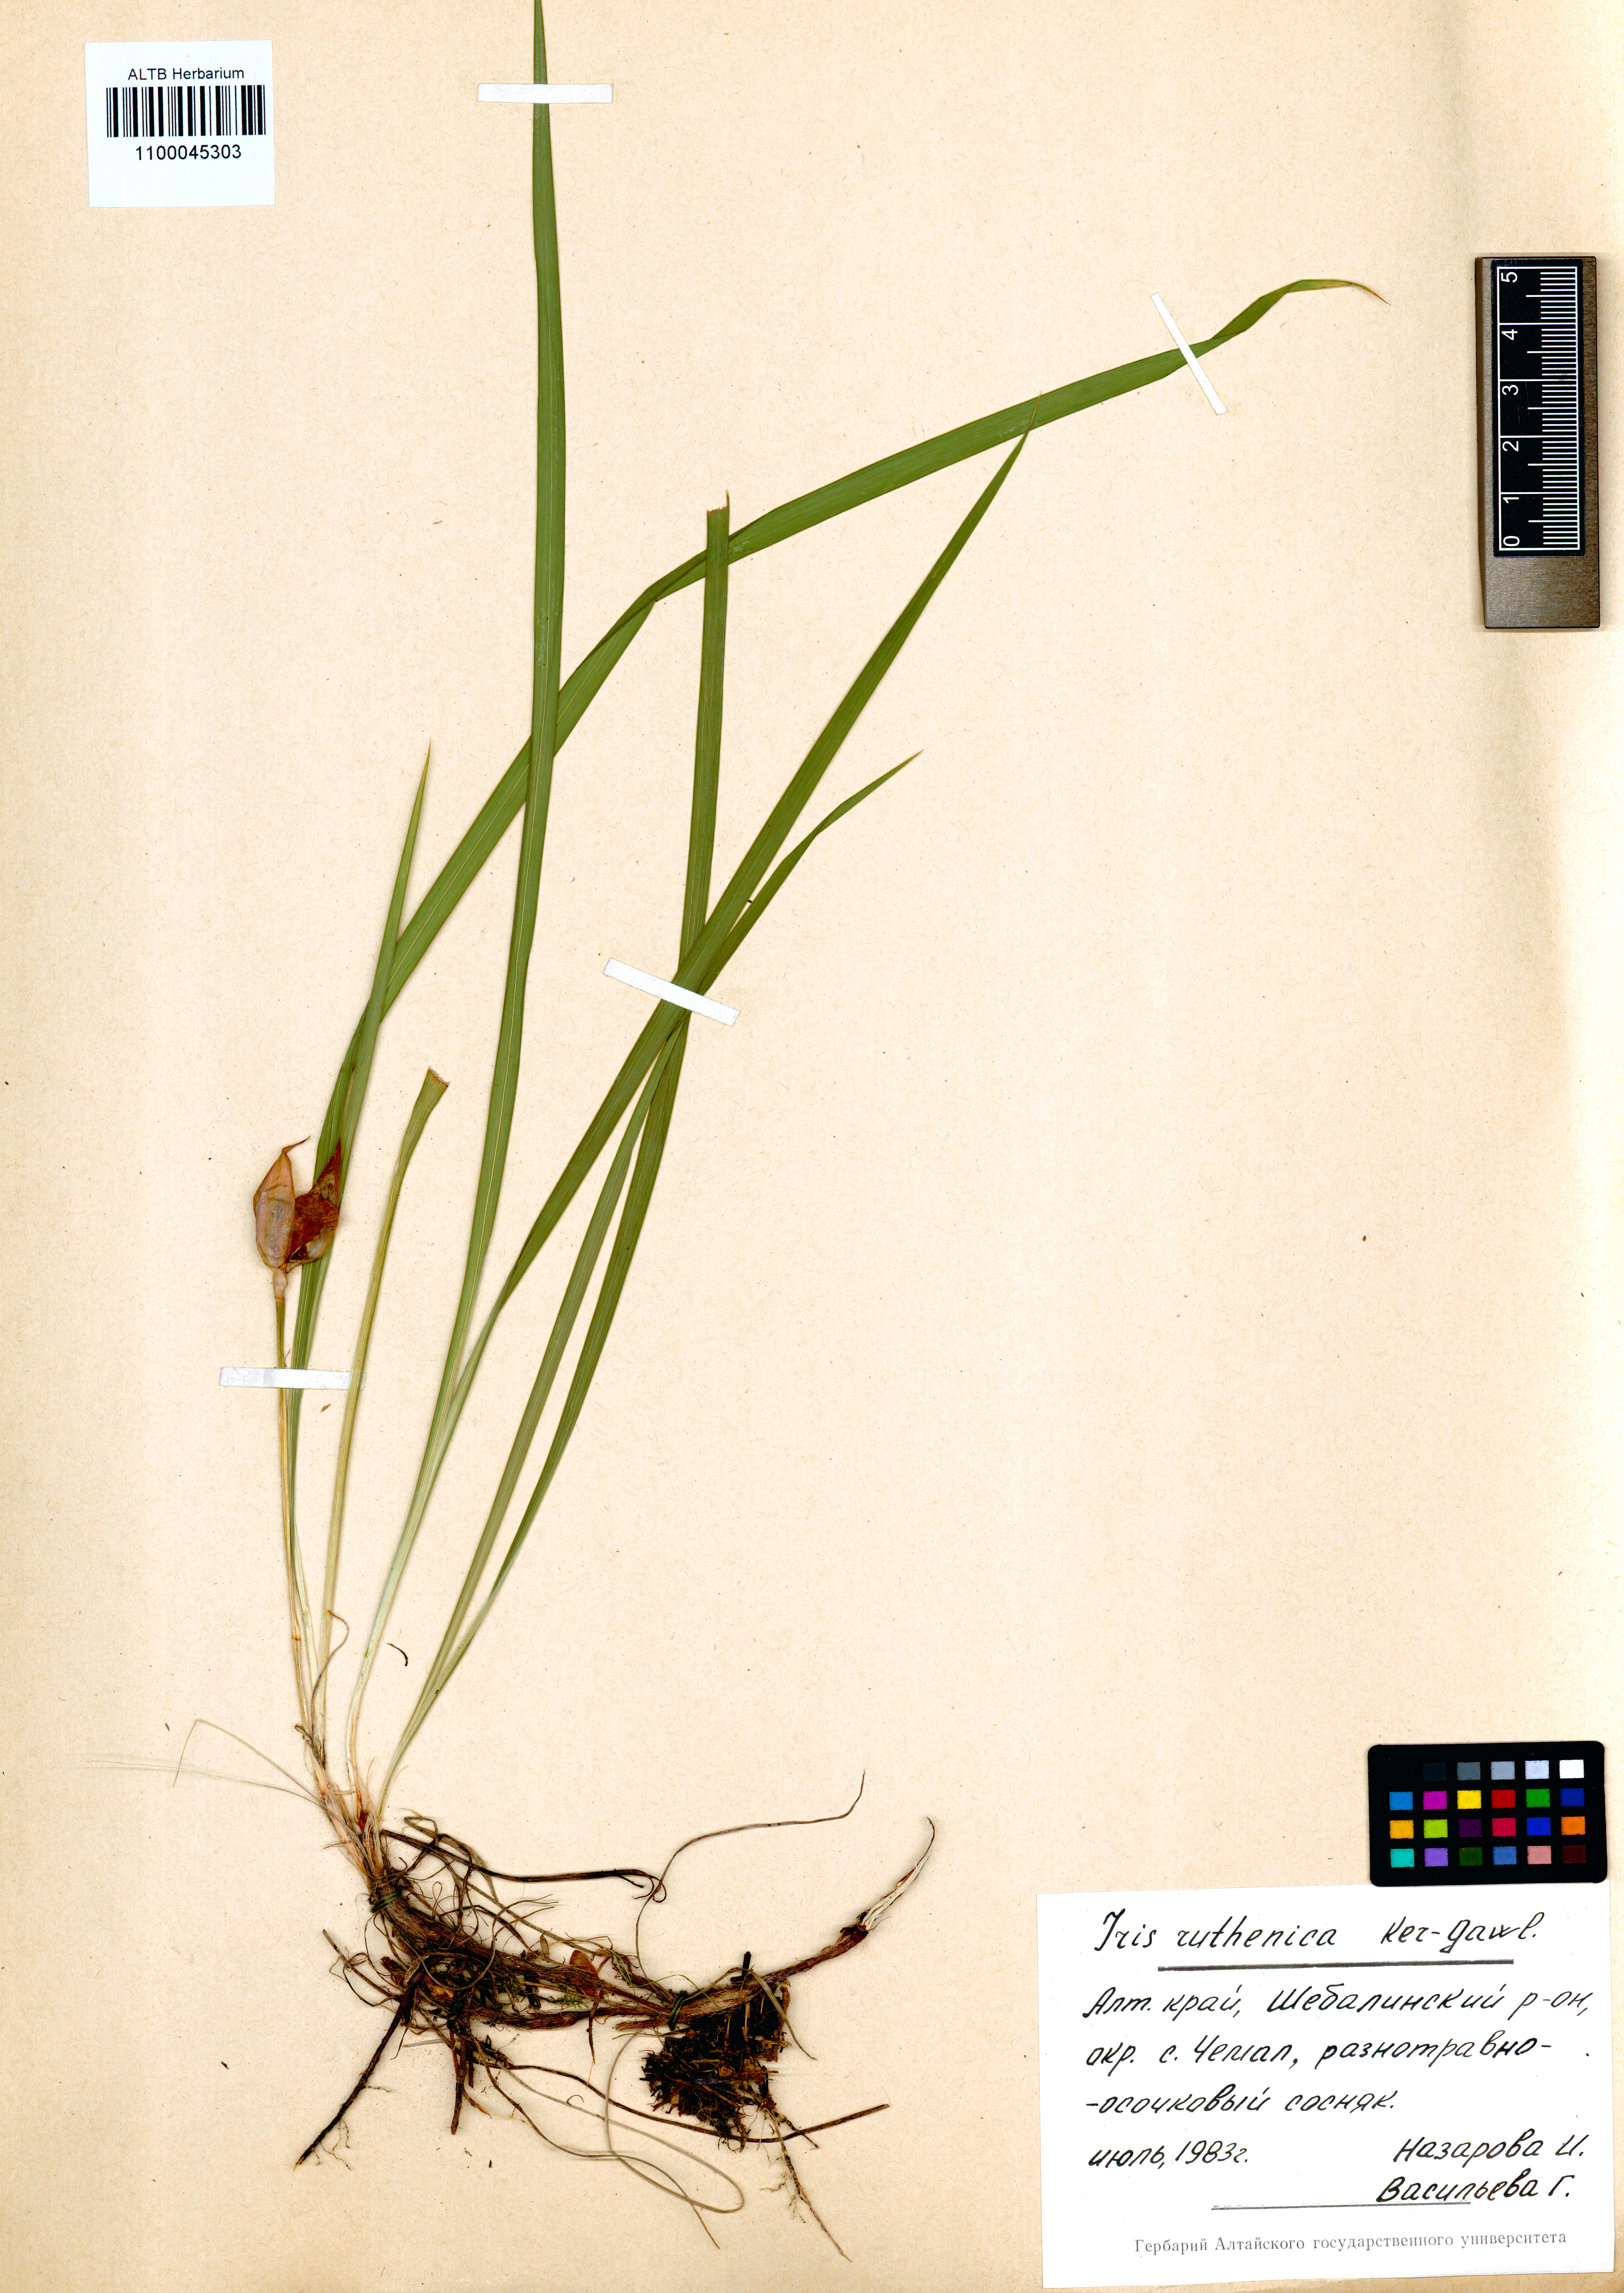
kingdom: Plantae
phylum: Tracheophyta
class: Liliopsida
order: Asparagales
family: Iridaceae
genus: Iris
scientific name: Iris ruthenica
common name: Purple-bract iris
